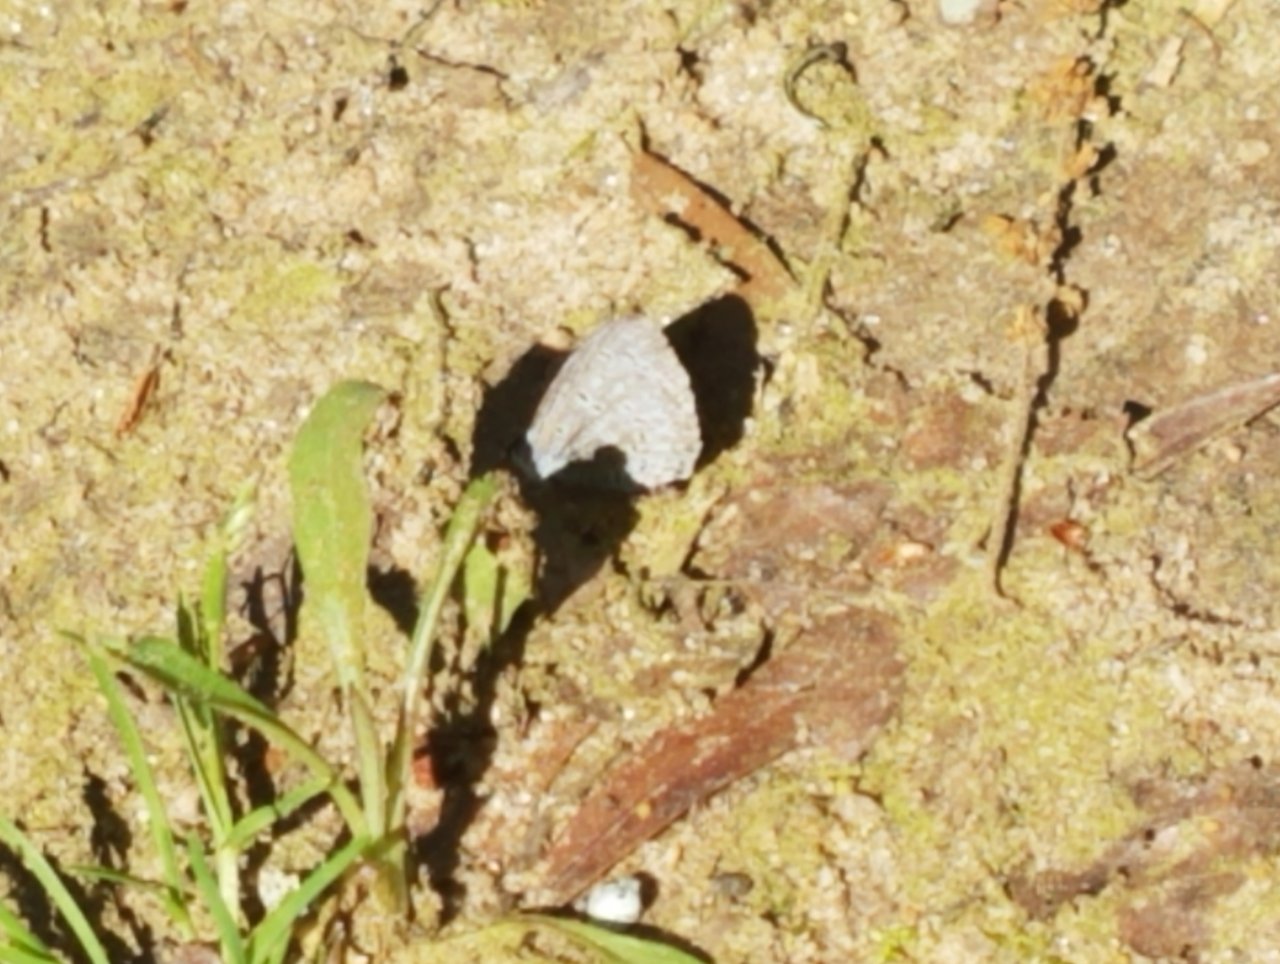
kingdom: Animalia
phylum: Arthropoda
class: Insecta
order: Lepidoptera
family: Lycaenidae
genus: Celastrina
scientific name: Celastrina
